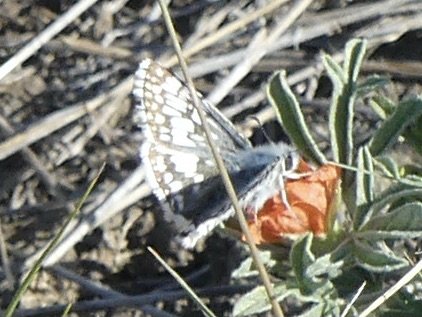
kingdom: Animalia
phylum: Arthropoda
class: Insecta
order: Lepidoptera
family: Hesperiidae
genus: Pyrgus
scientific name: Pyrgus communis
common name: Common Checkered-Skipper
